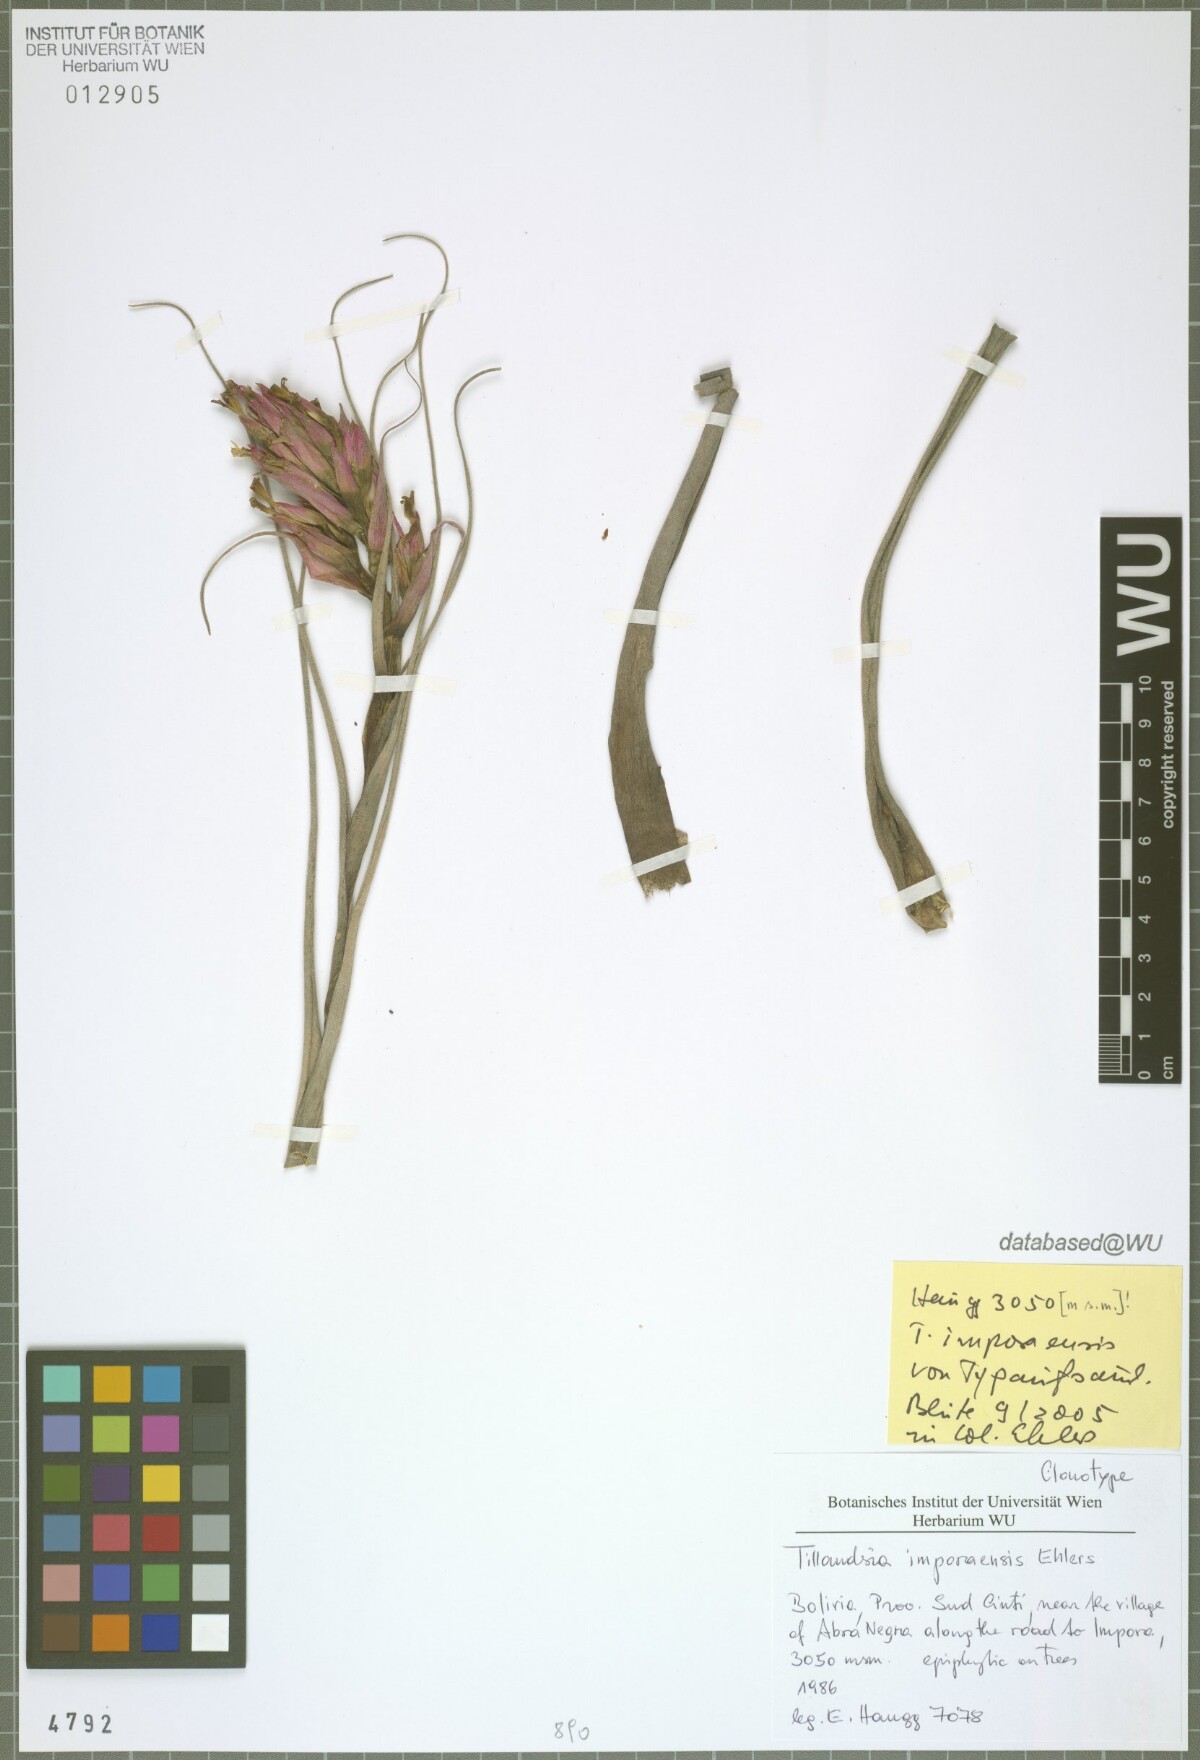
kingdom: Plantae
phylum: Tracheophyta
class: Liliopsida
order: Poales
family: Bromeliaceae
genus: Tillandsia
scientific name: Tillandsia imporaensis
